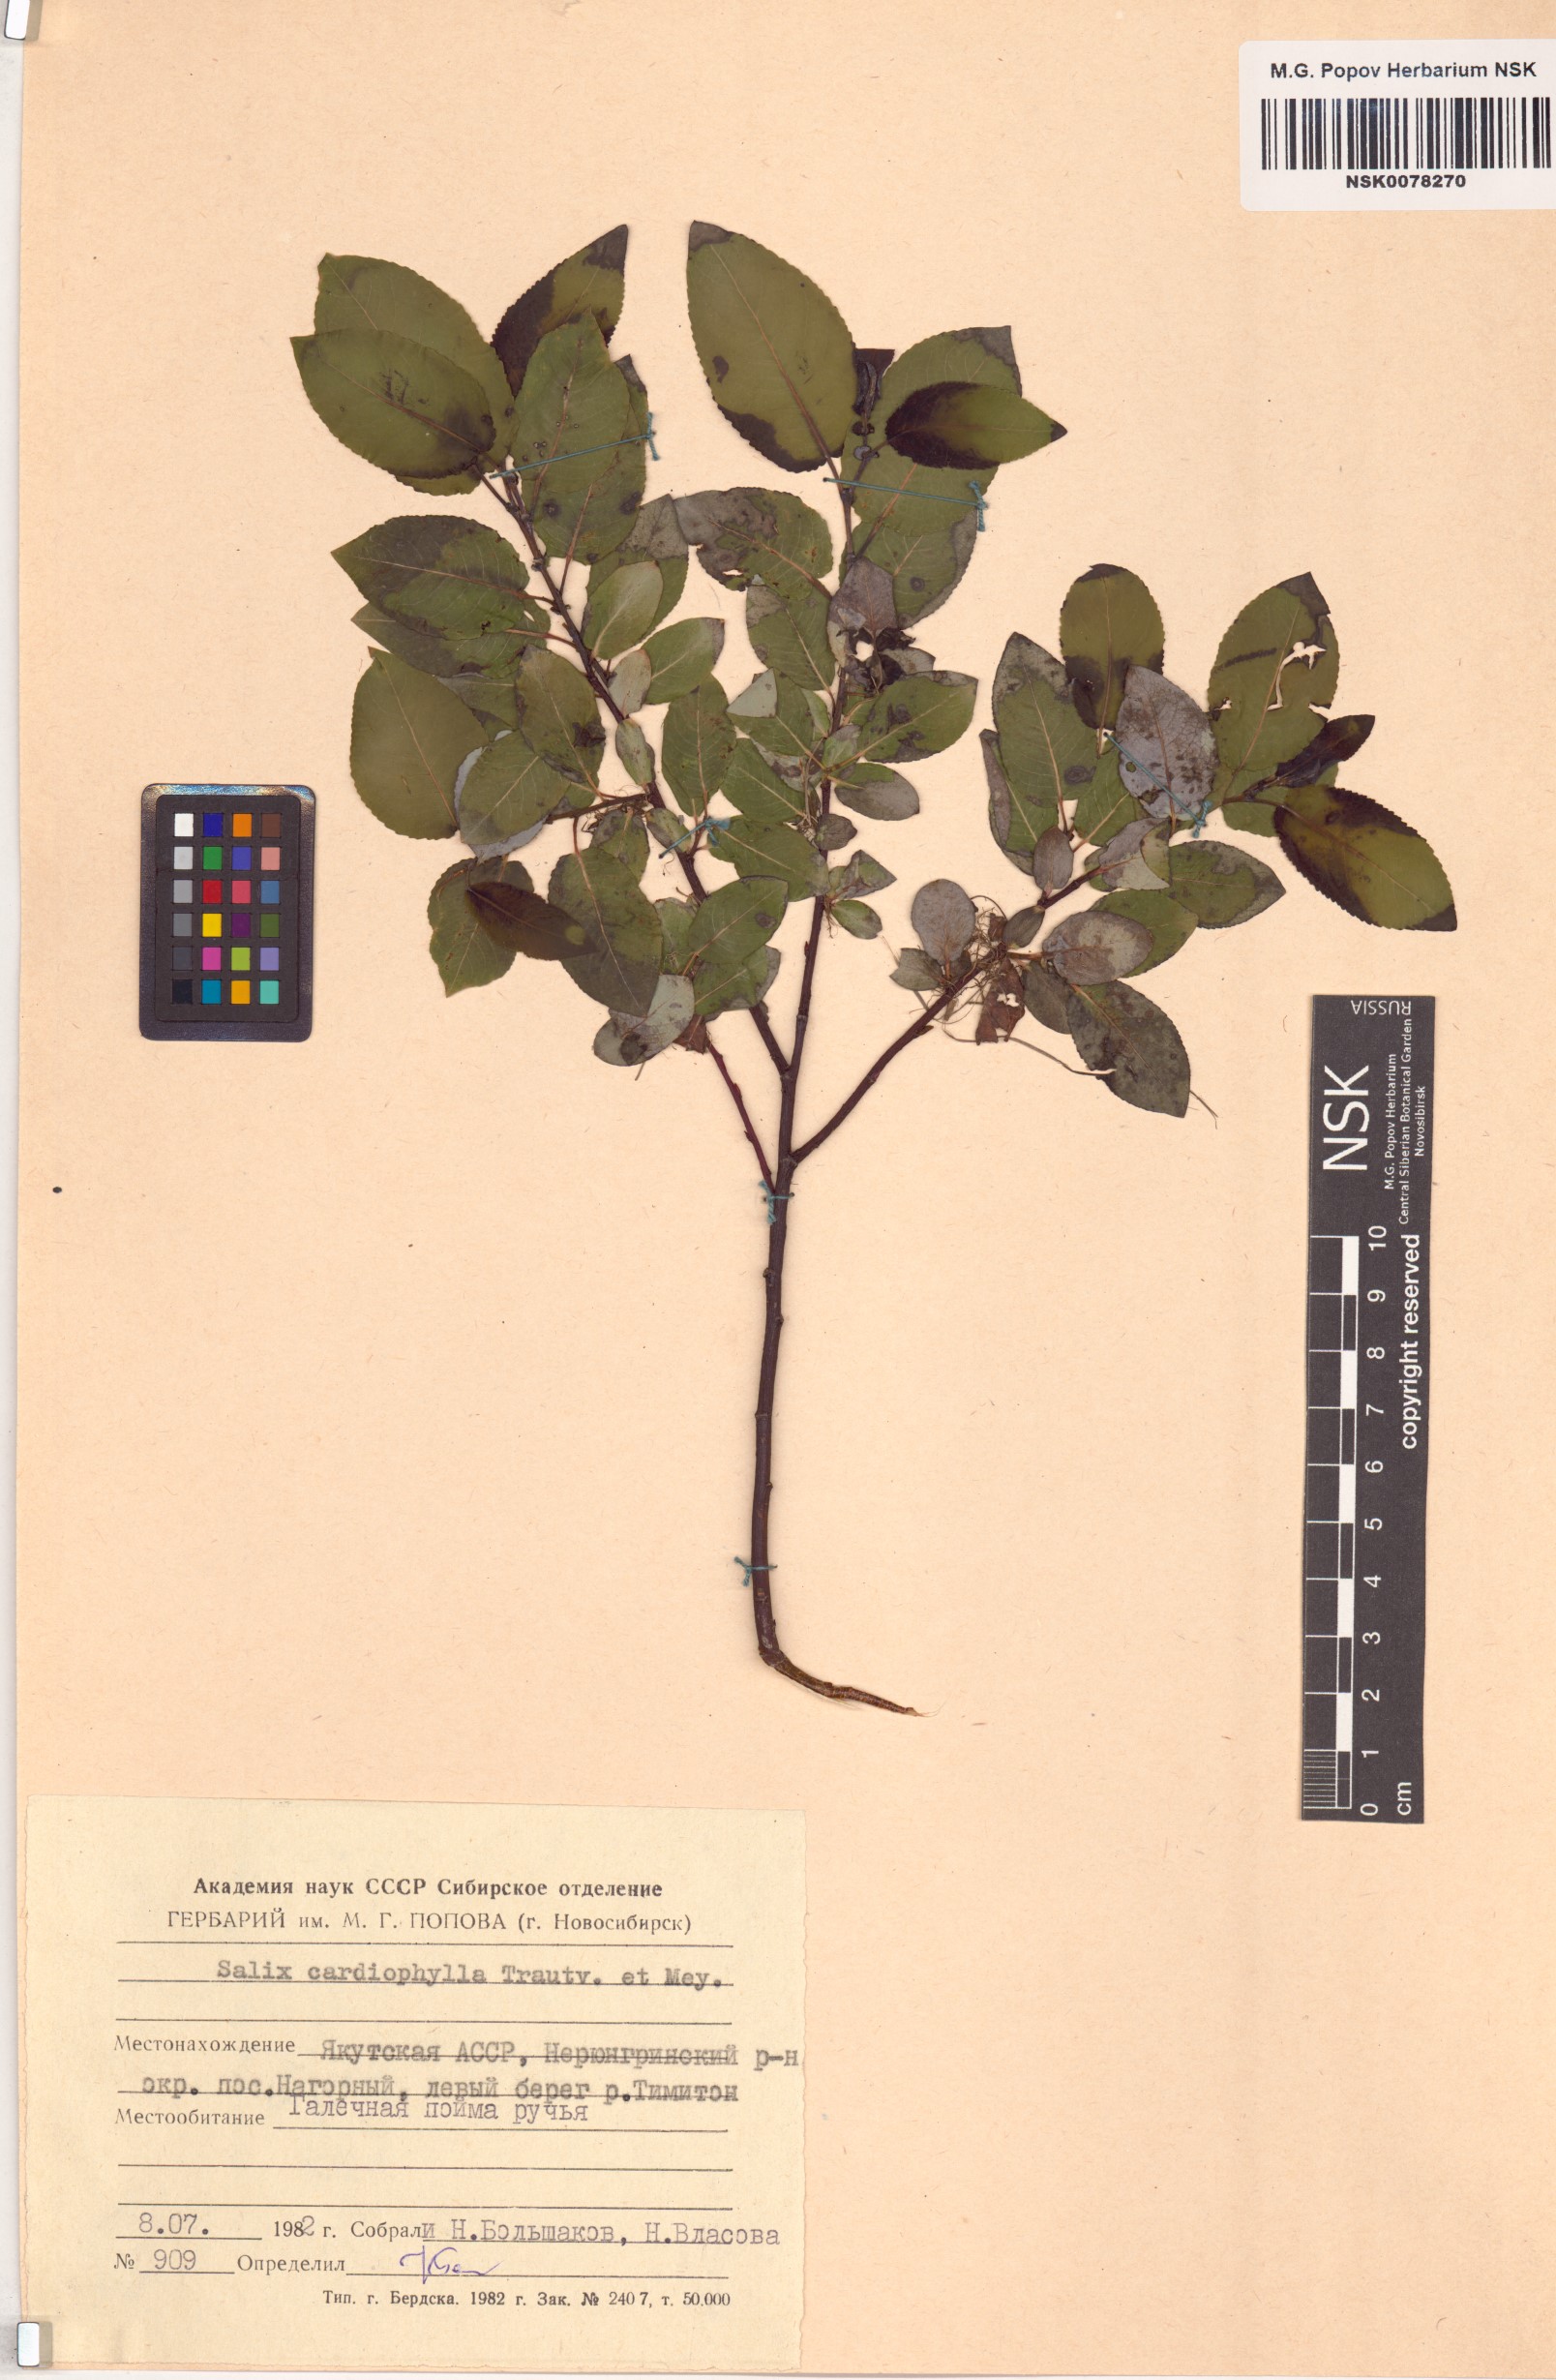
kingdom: Plantae
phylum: Tracheophyta
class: Magnoliopsida
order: Malpighiales
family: Salicaceae
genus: Chosenia
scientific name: Chosenia cardiophylla
